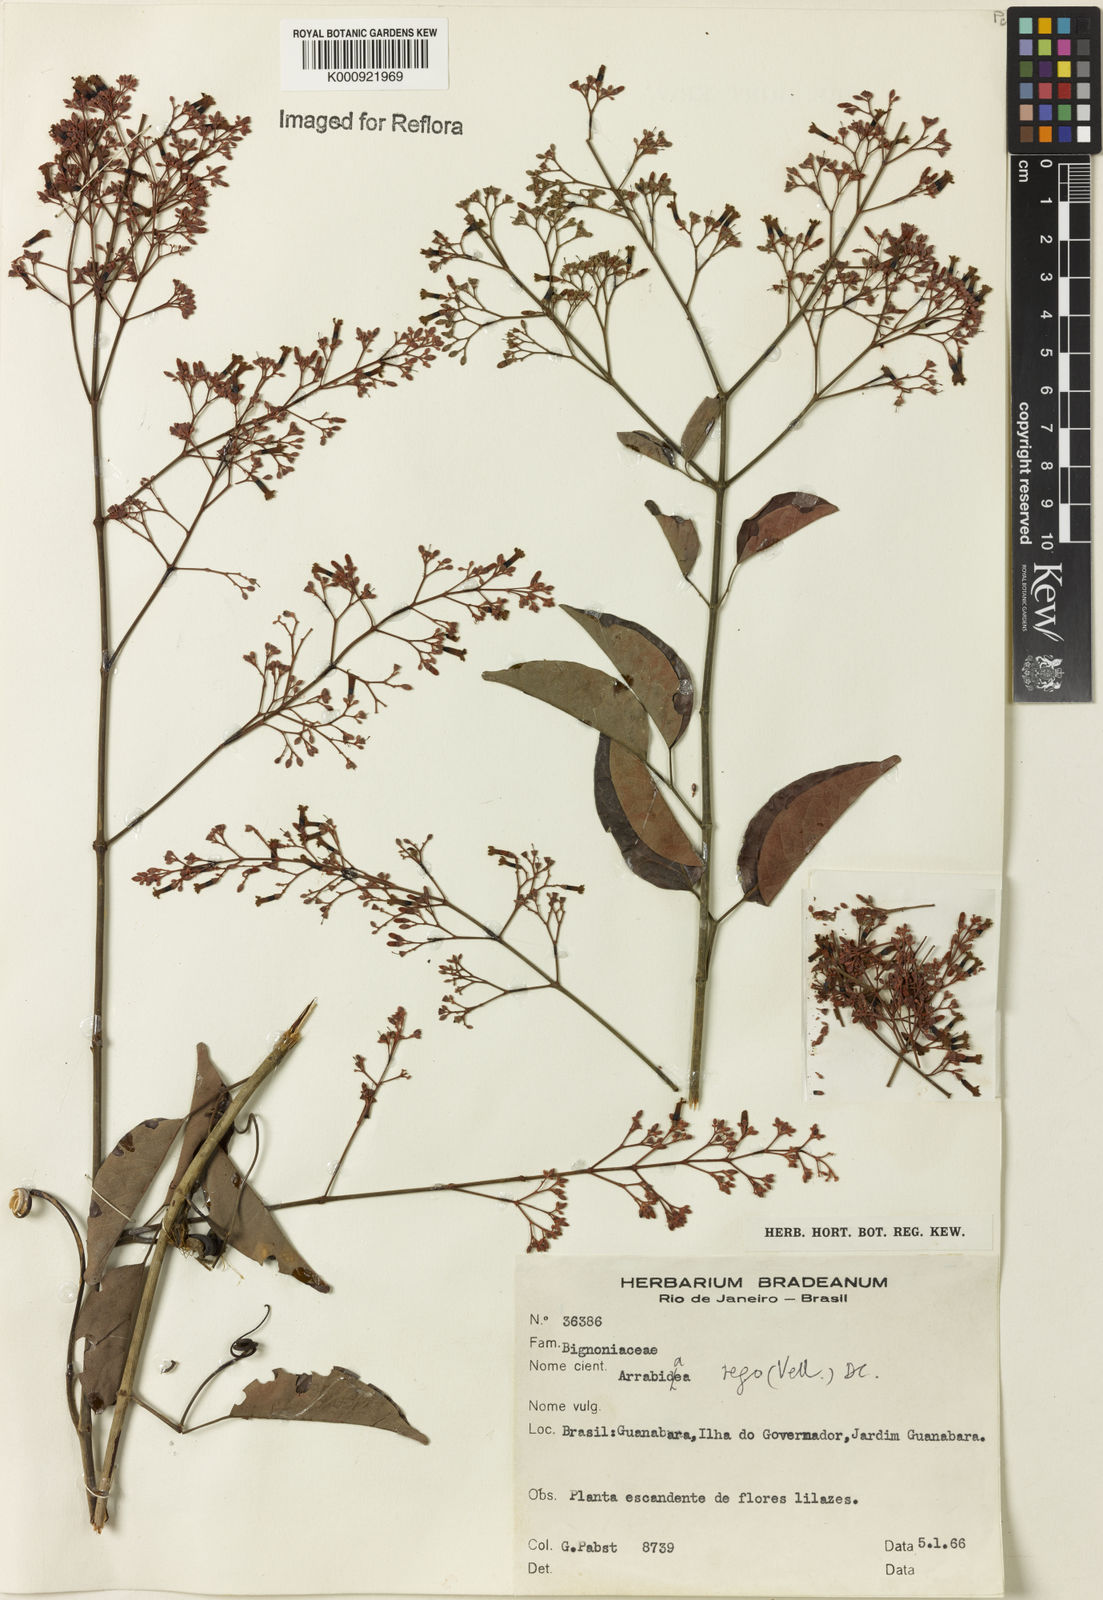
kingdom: Plantae
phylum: Tracheophyta
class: Magnoliopsida
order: Lamiales
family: Bignoniaceae
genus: Fridericia
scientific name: Fridericia rego
